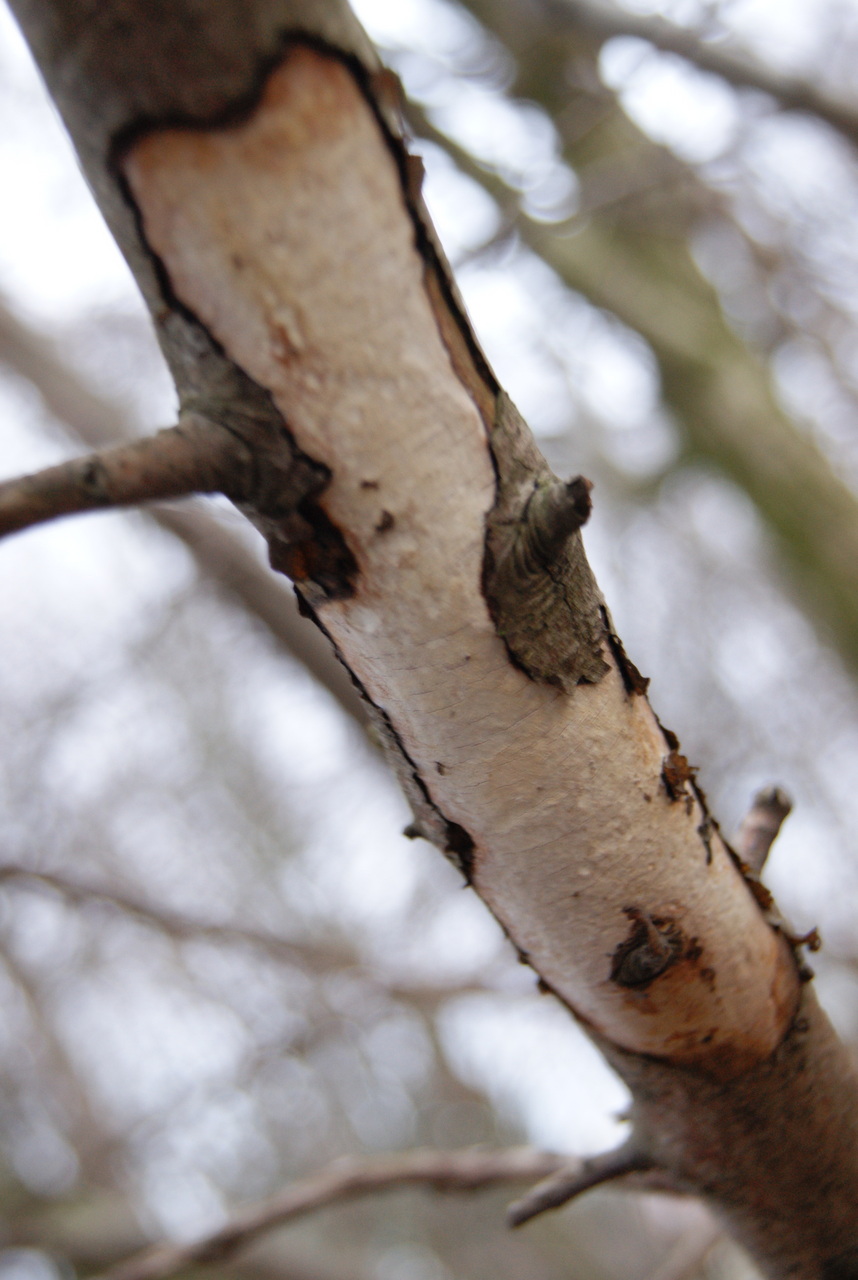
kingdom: Fungi
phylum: Basidiomycota
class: Agaricomycetes
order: Corticiales
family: Vuilleminiaceae
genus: Vuilleminia
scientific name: Vuilleminia cystidiata
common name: tjørne-barksprænger
